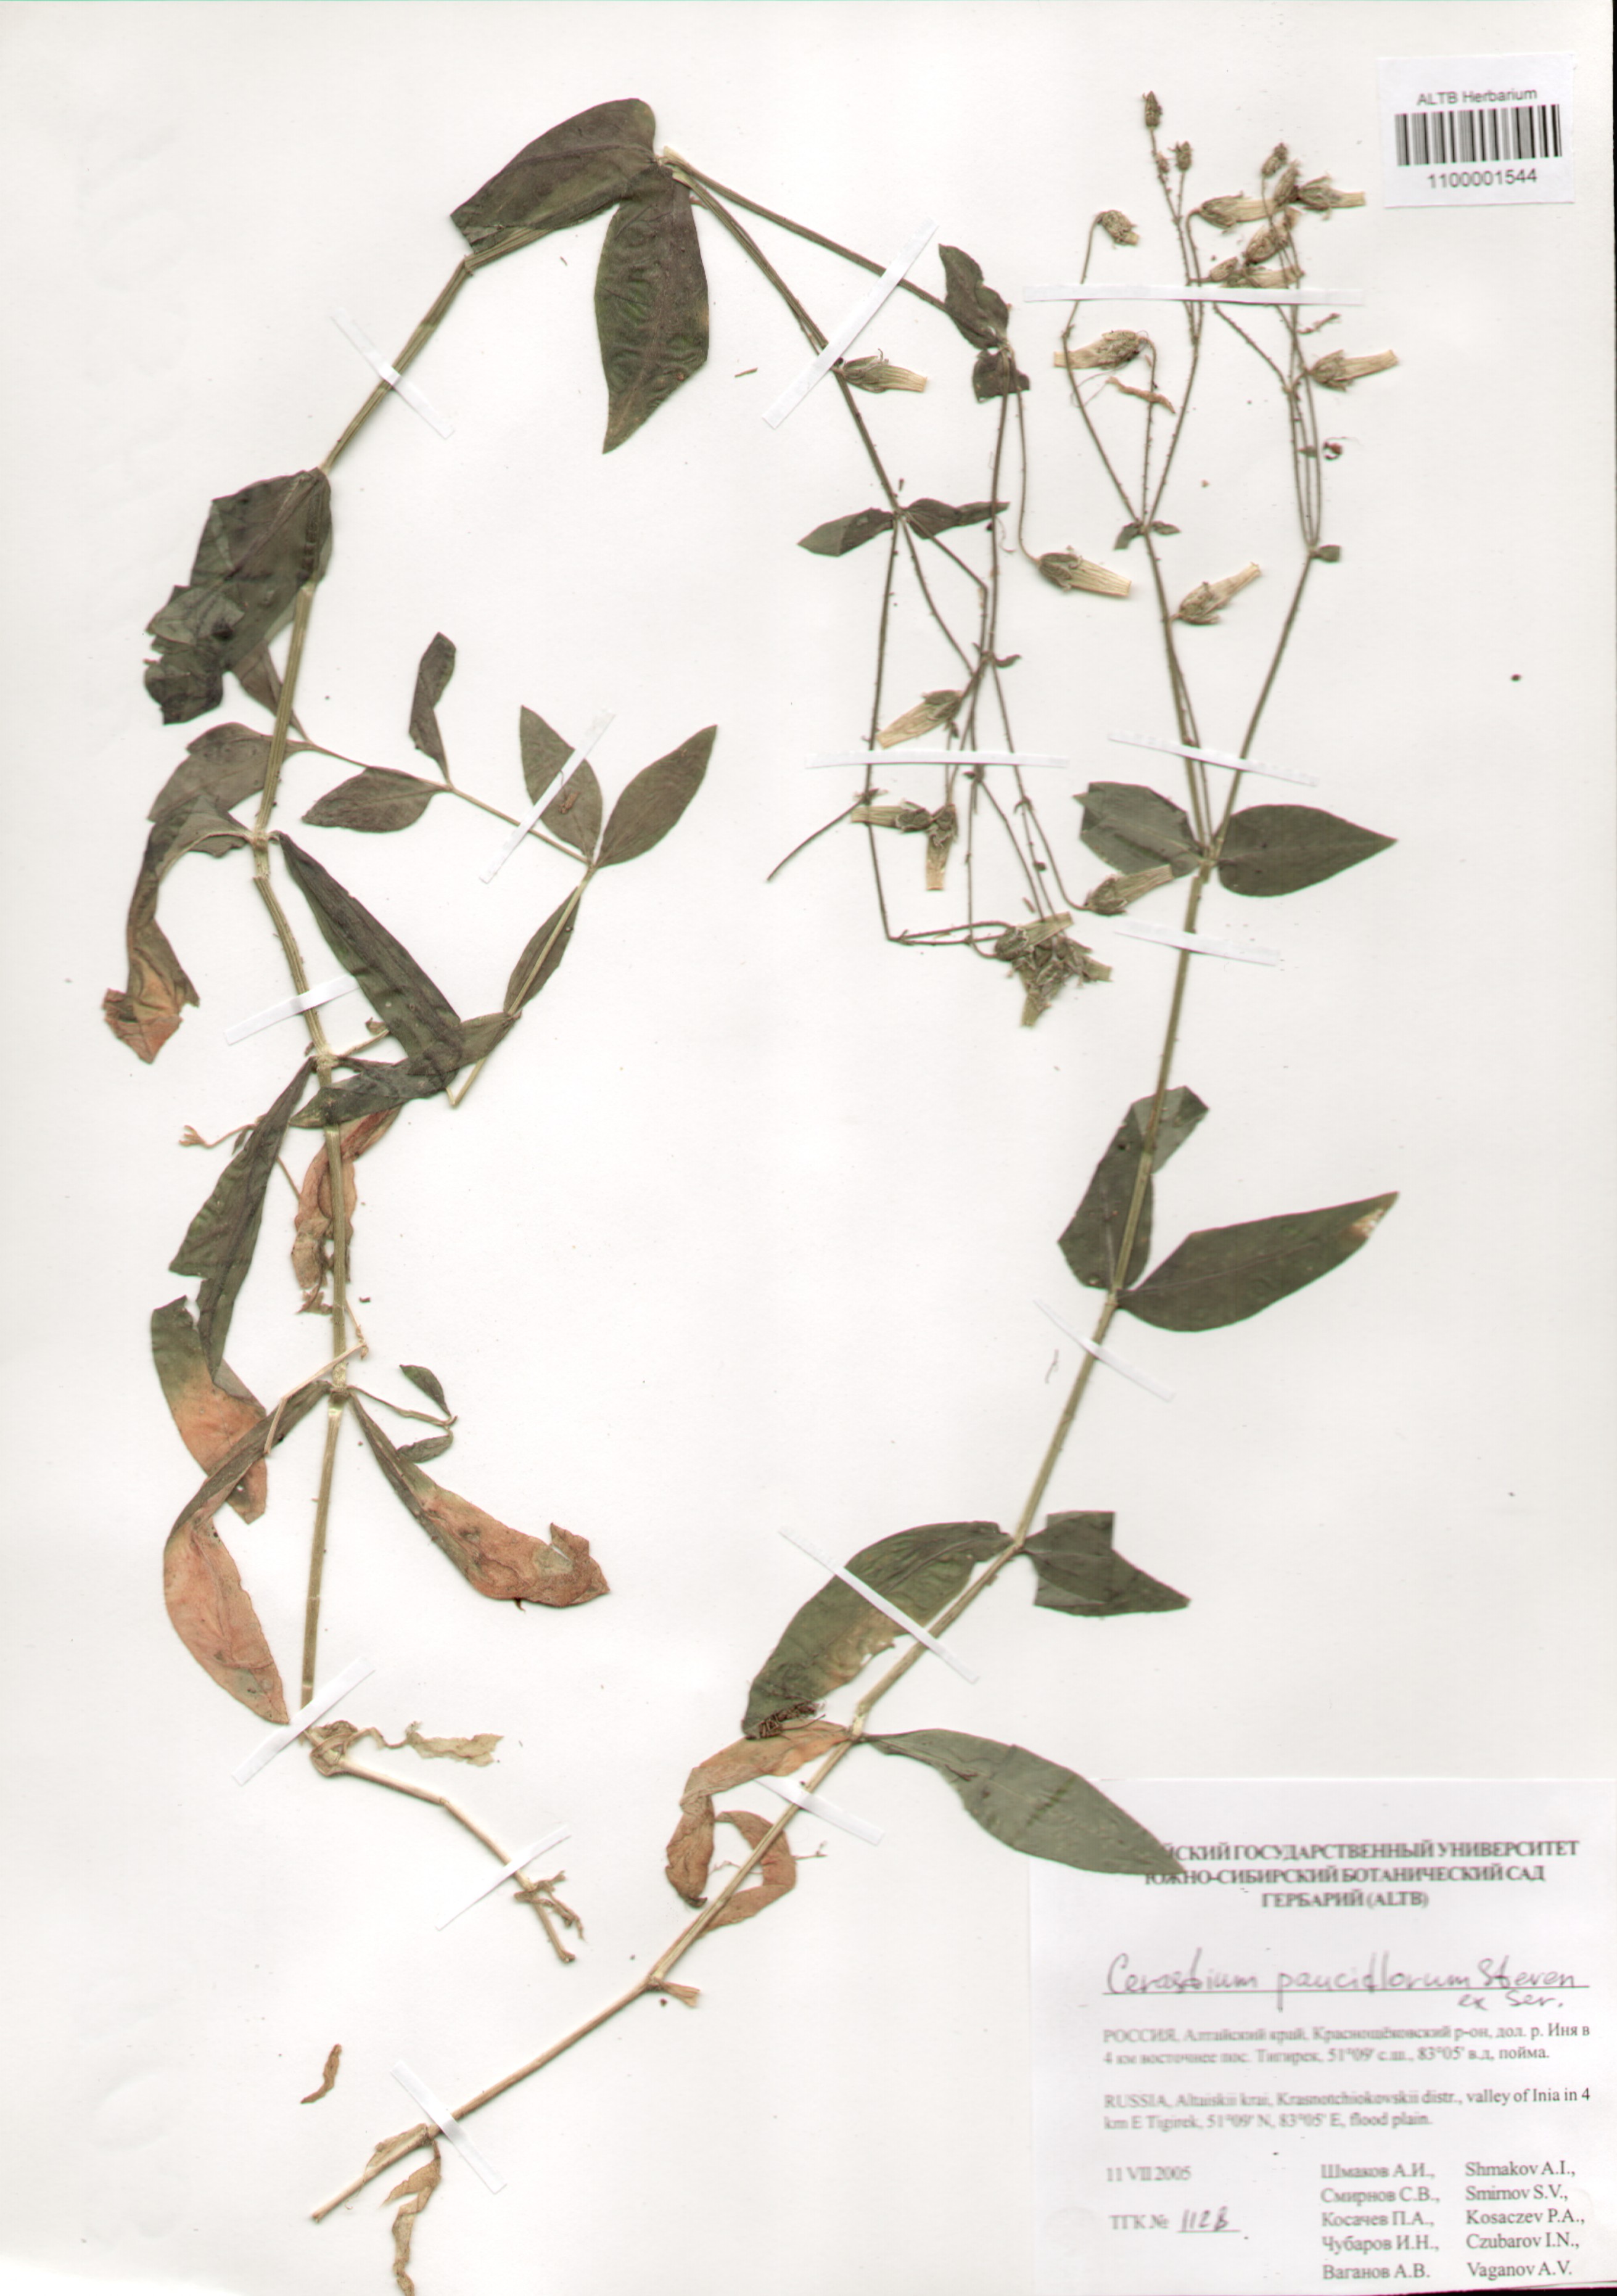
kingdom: Plantae
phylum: Tracheophyta
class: Magnoliopsida
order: Caryophyllales
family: Caryophyllaceae
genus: Cerastium
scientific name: Cerastium pauciflorum
